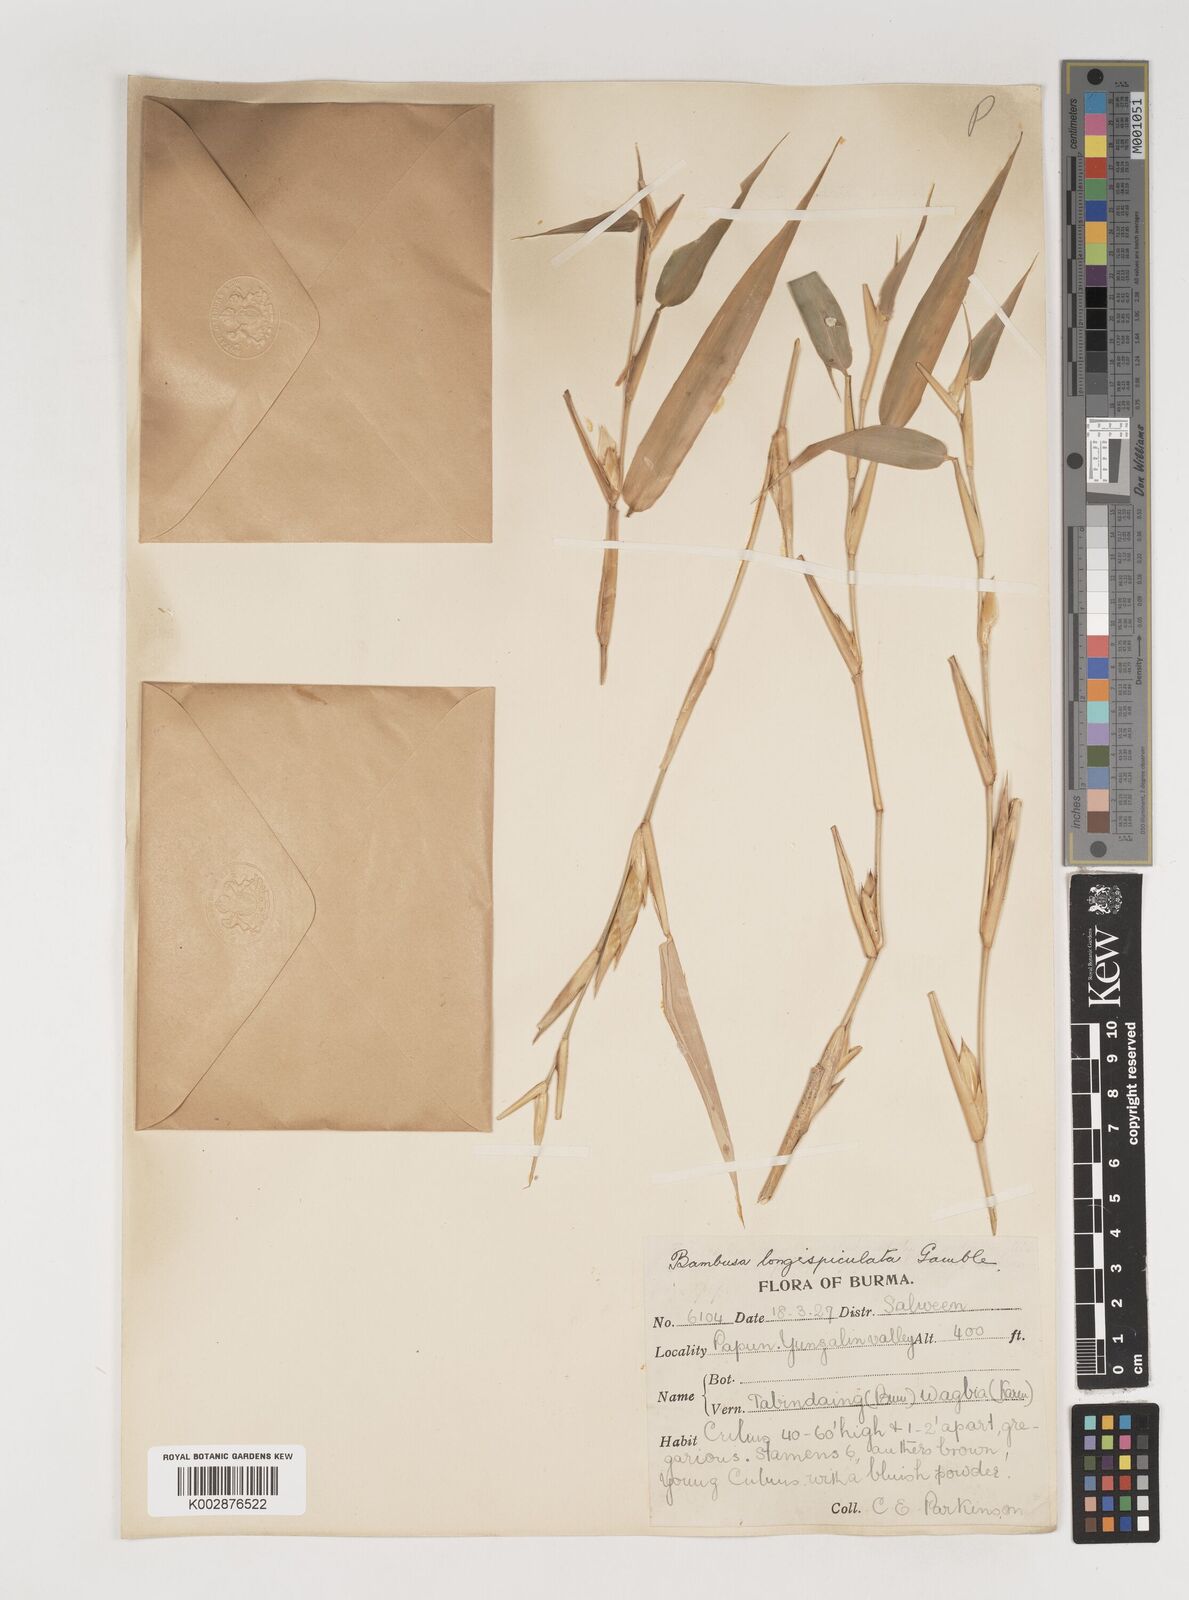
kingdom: Plantae
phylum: Tracheophyta
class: Liliopsida
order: Poales
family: Poaceae
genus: Bambusa
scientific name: Bambusa longispiculata
